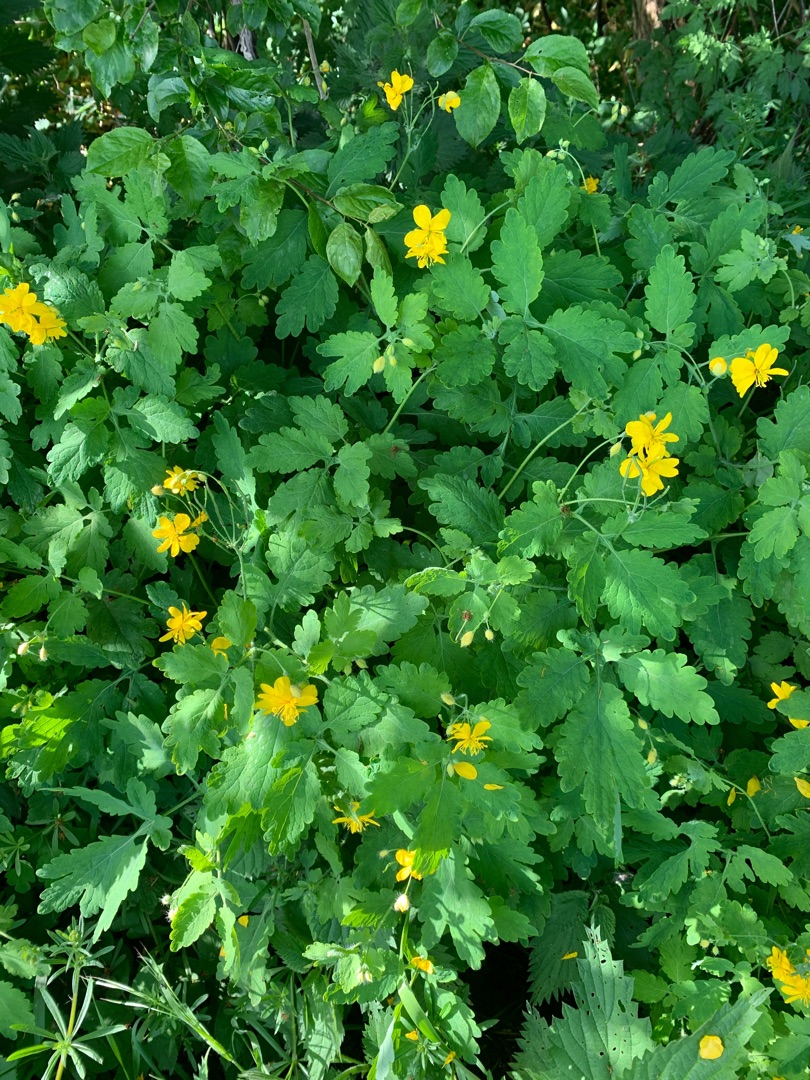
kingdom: Plantae
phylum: Tracheophyta
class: Magnoliopsida
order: Ranunculales
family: Papaveraceae
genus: Chelidonium
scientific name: Chelidonium majus
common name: Svaleurt
